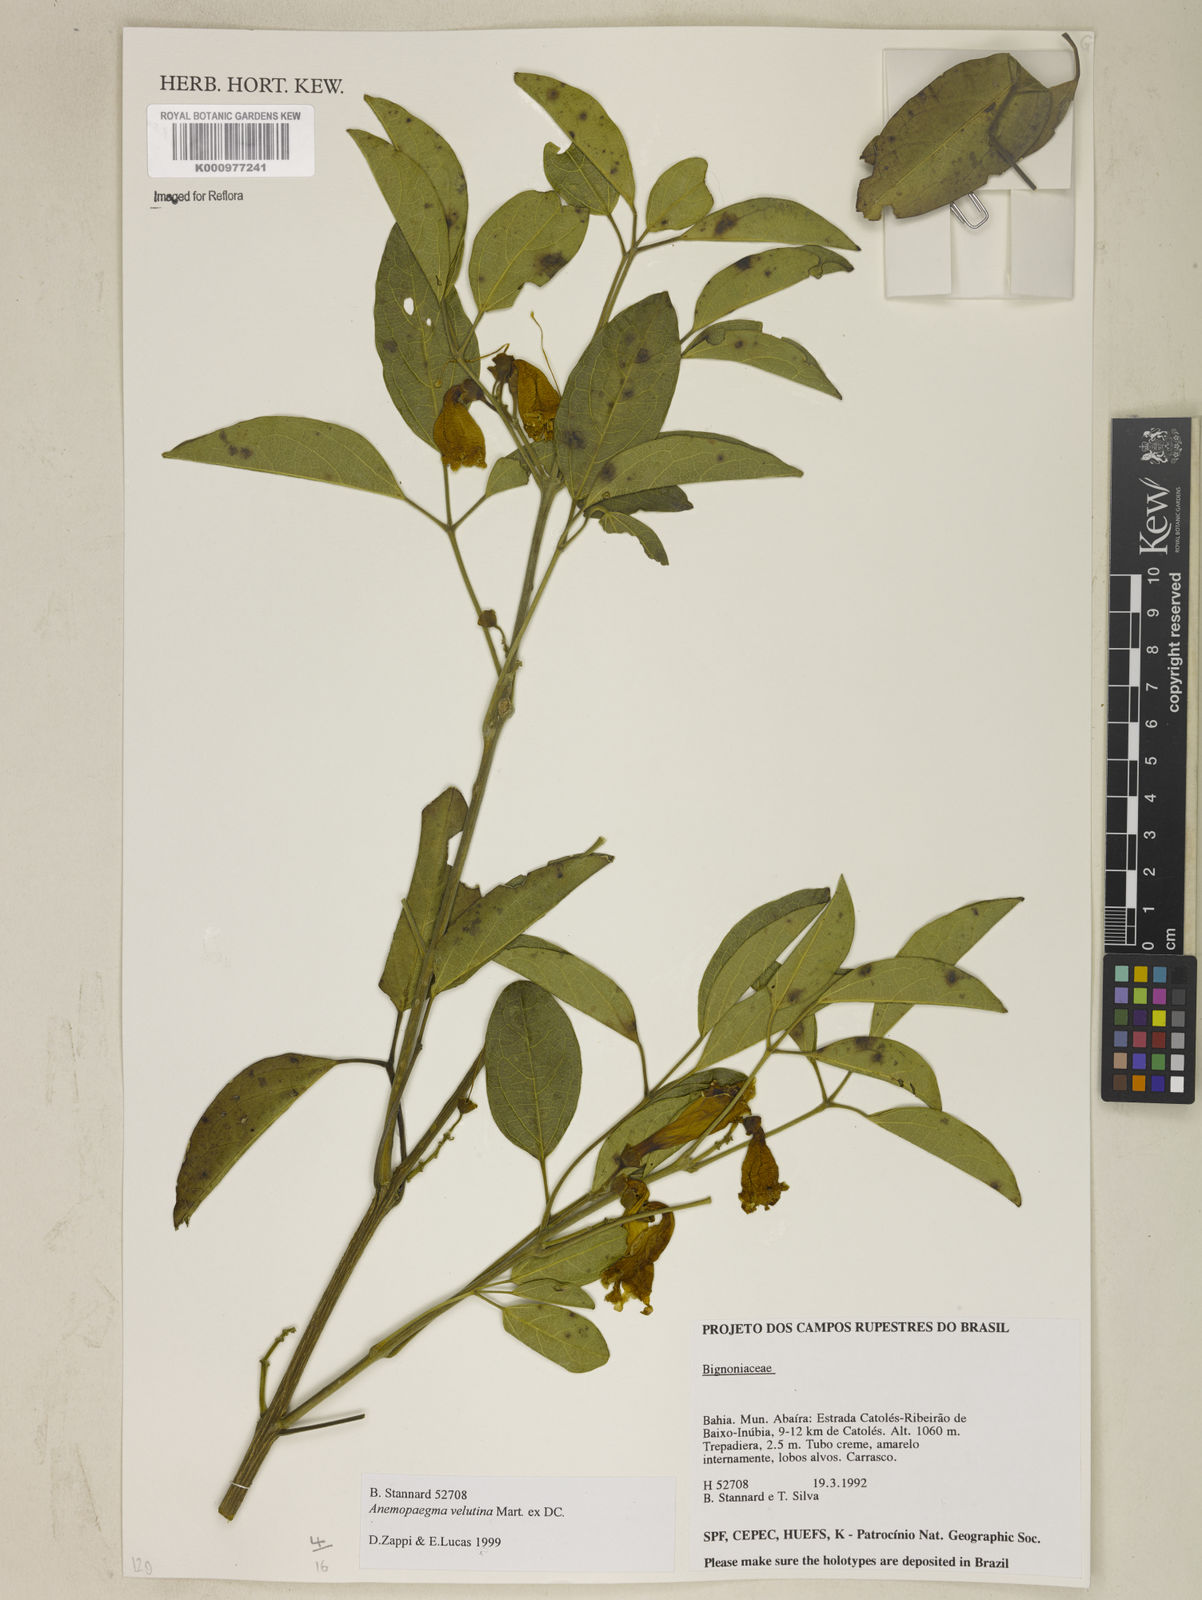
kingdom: Plantae
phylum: Tracheophyta
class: Magnoliopsida
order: Lamiales
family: Bignoniaceae
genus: Anemopaegma
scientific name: Anemopaegma
